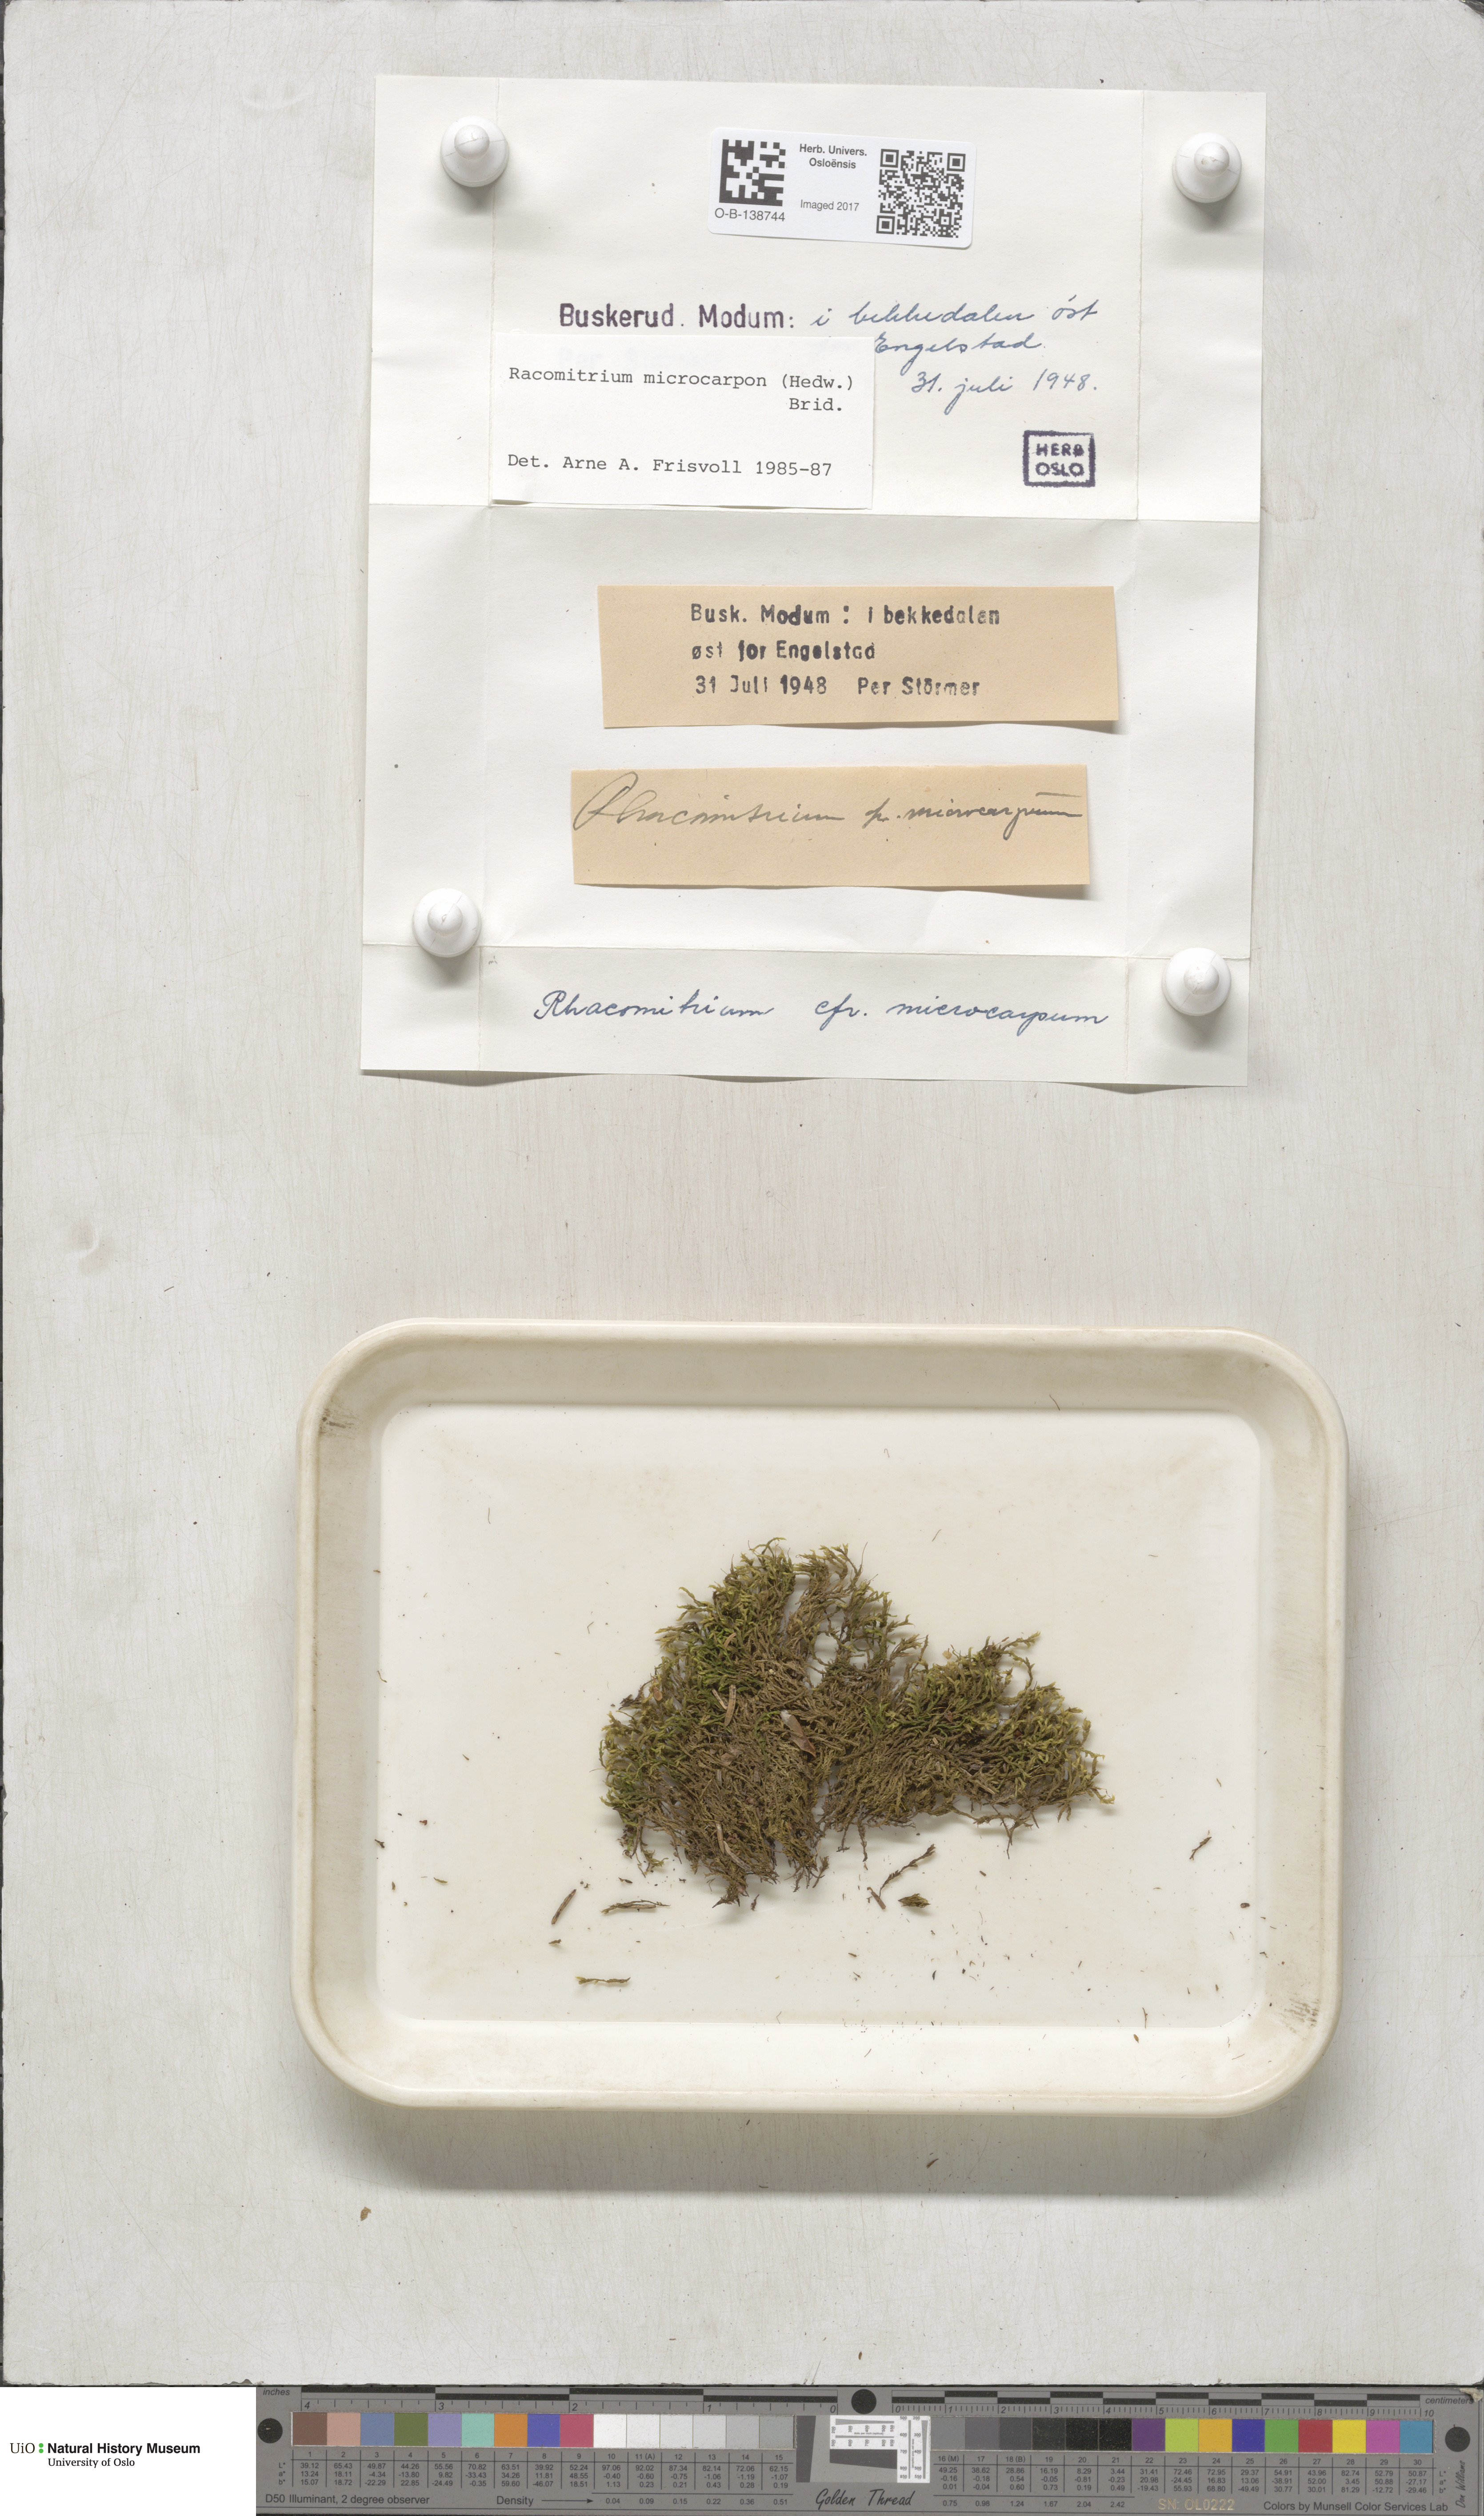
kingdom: Plantae
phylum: Bryophyta
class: Bryopsida
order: Grimmiales
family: Grimmiaceae
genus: Bucklandiella
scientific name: Bucklandiella microcarpos
